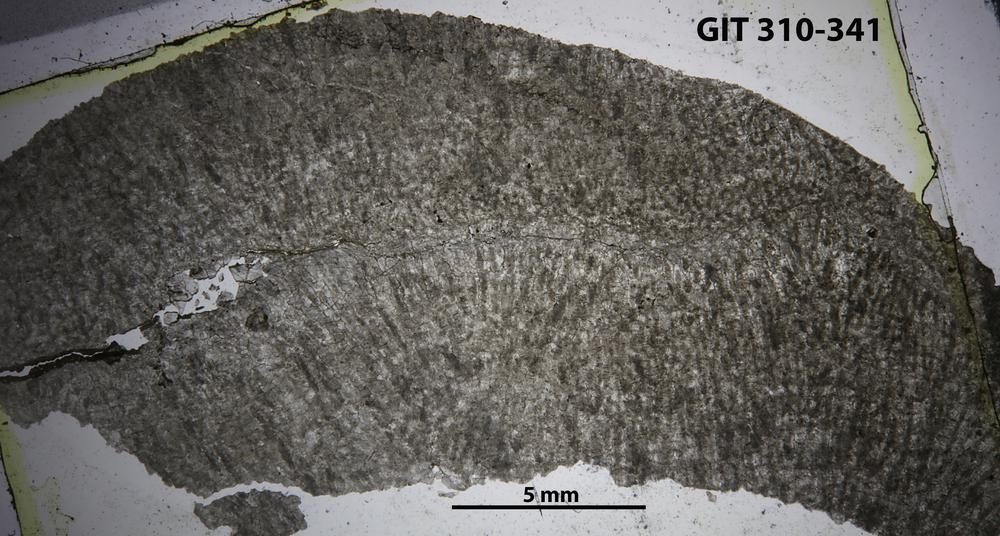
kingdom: Animalia
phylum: Porifera
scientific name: Porifera
